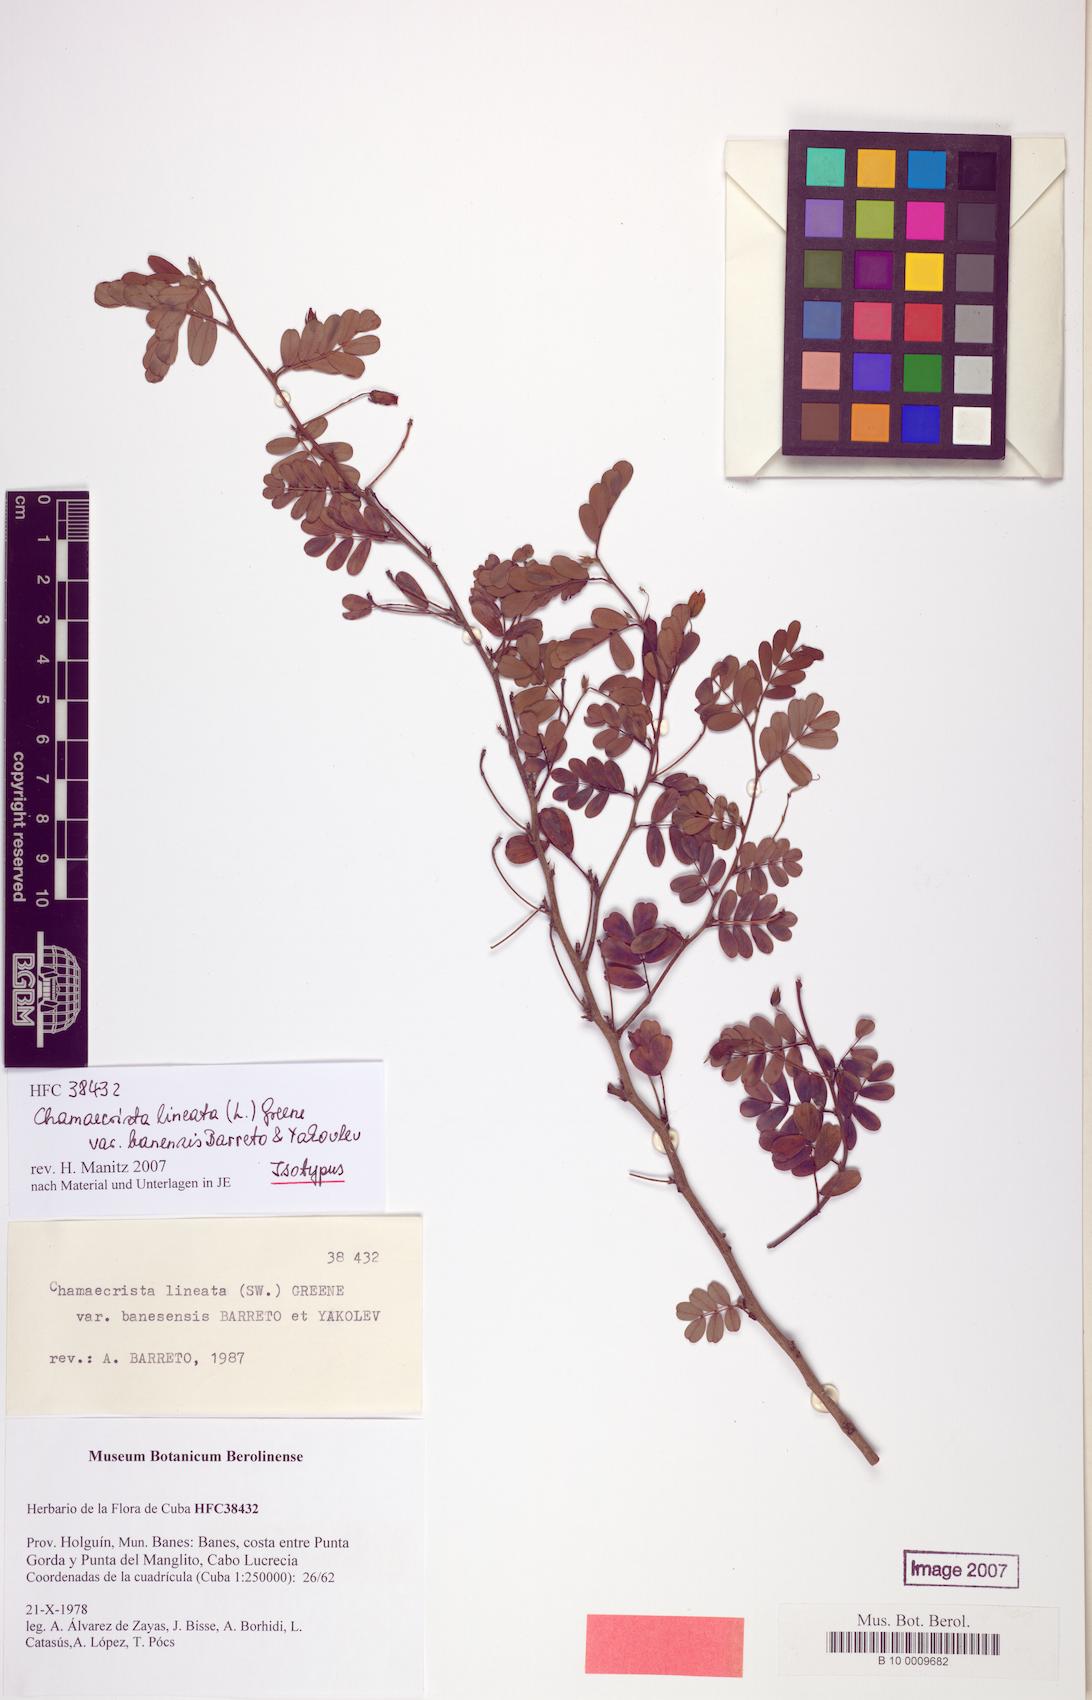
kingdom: Plantae
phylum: Tracheophyta
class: Magnoliopsida
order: Fabales
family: Fabaceae
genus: Chamaecrista
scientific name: Chamaecrista lineata
